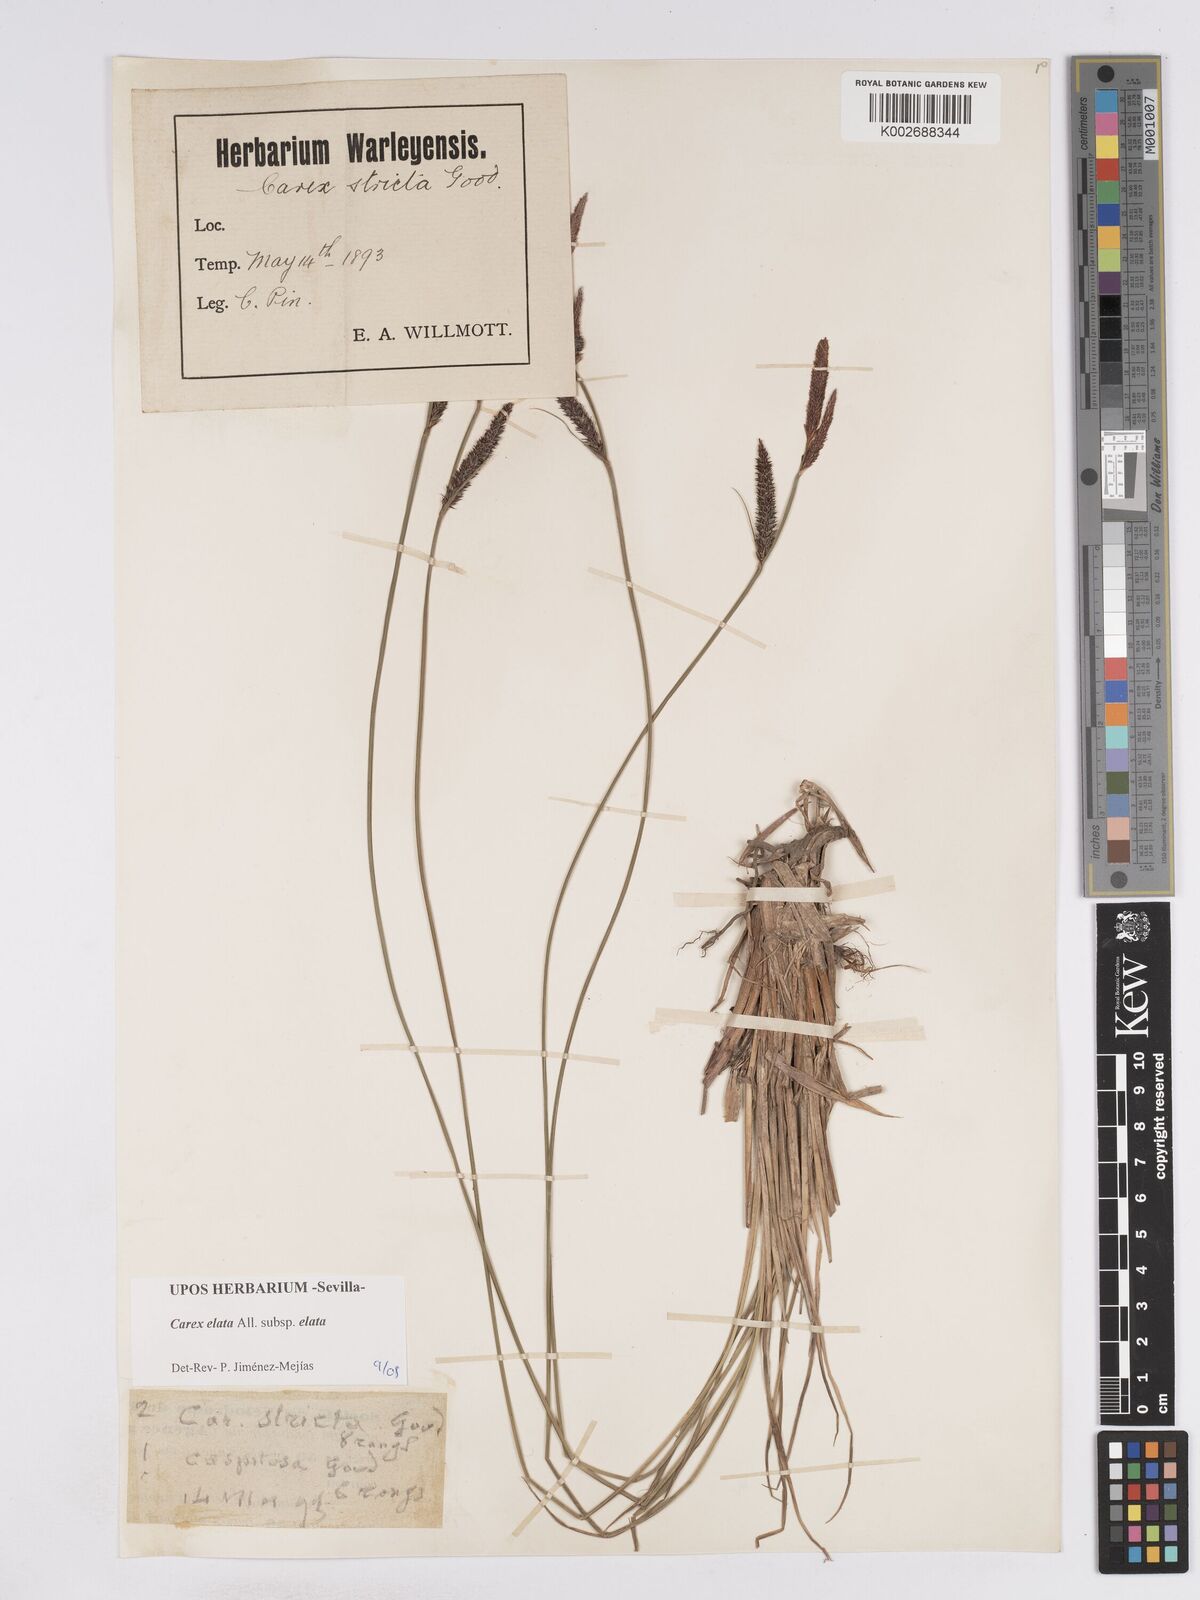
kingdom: Plantae
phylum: Tracheophyta
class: Liliopsida
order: Poales
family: Cyperaceae
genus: Carex
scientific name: Carex elata
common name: Tufted sedge
